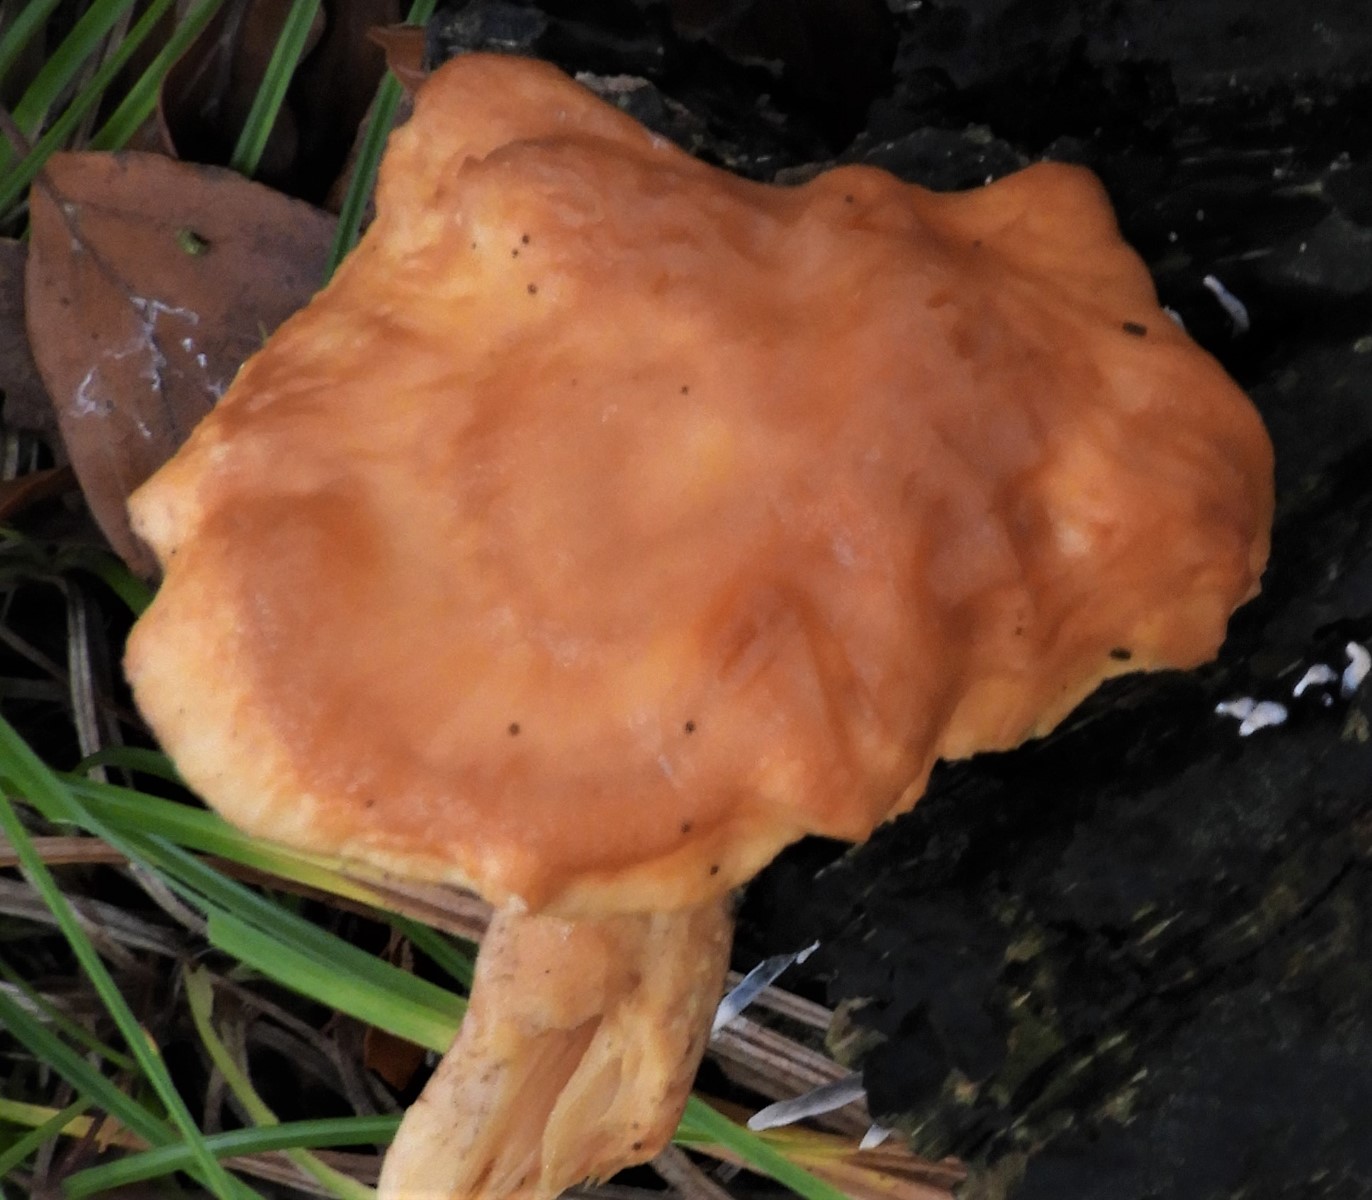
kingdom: Fungi
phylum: Basidiomycota
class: Agaricomycetes
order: Cantharellales
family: Hydnaceae
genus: Hydnum
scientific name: Hydnum
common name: pigsvamp
